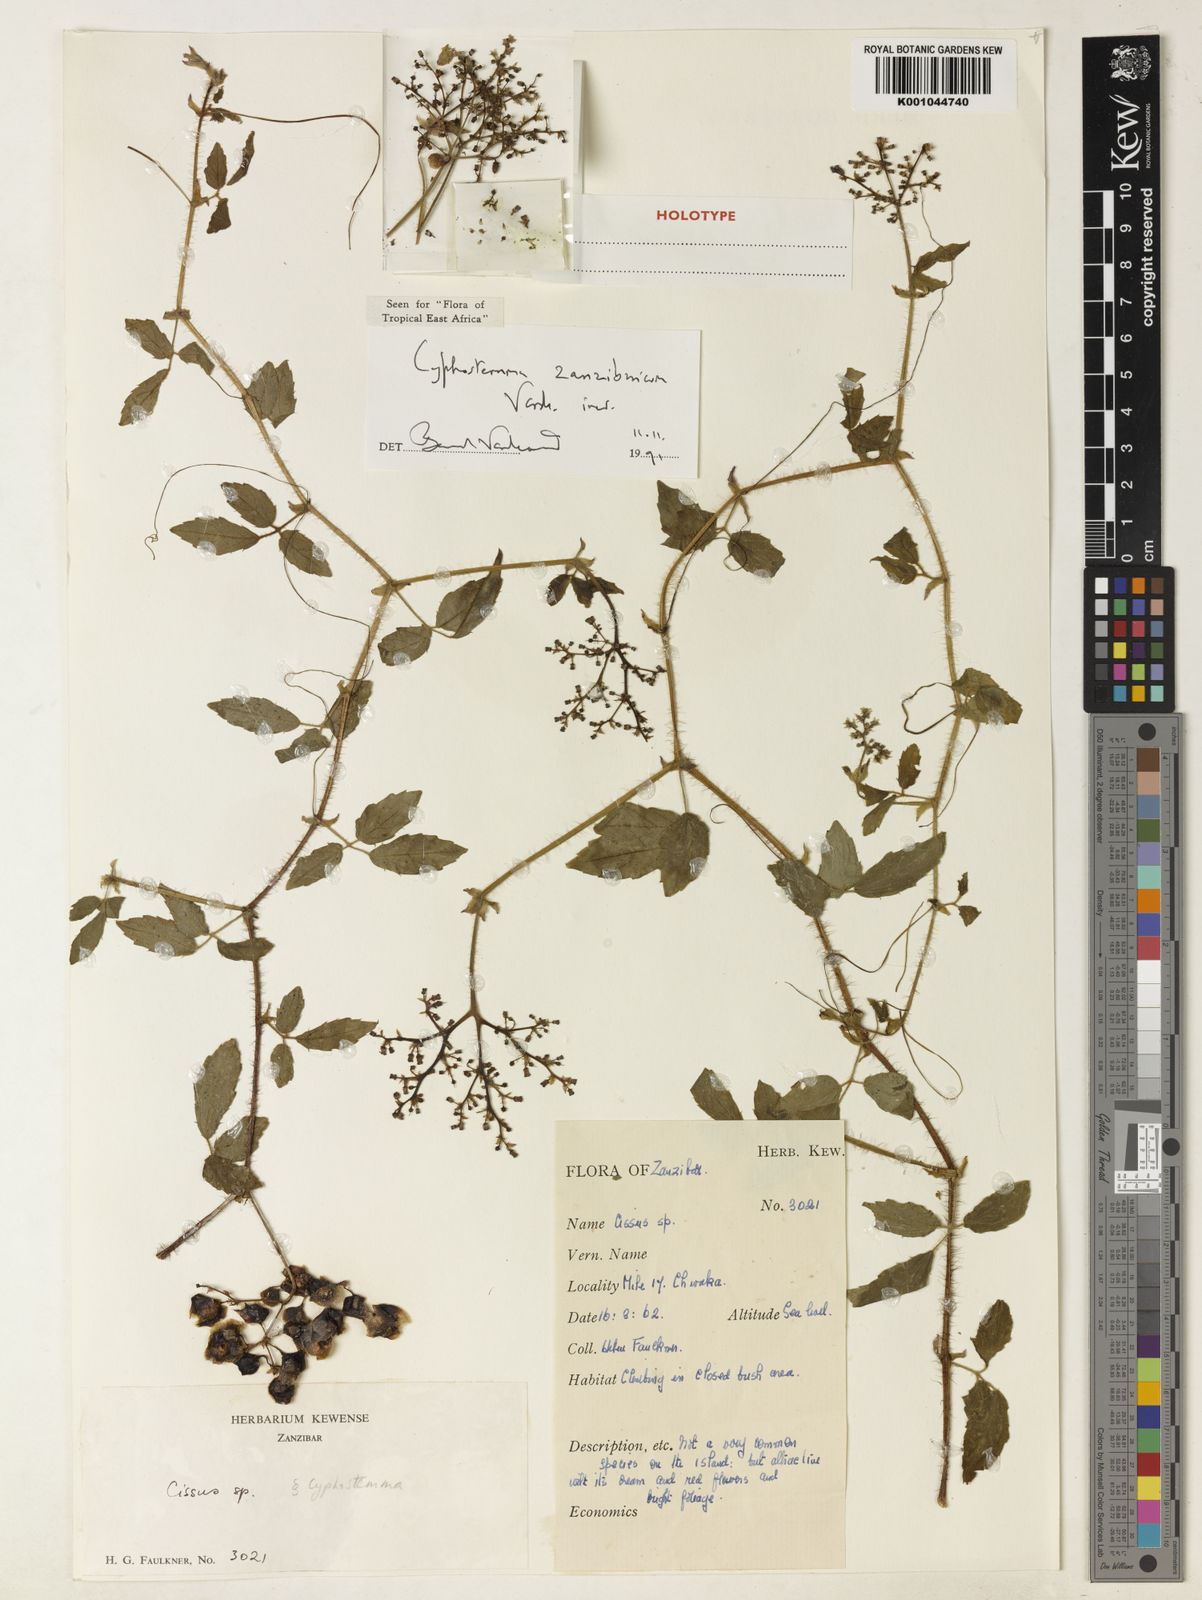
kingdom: Plantae
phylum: Tracheophyta
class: Magnoliopsida
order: Vitales
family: Vitaceae
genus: Cyphostemma
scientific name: Cyphostemma zanzibaricum
